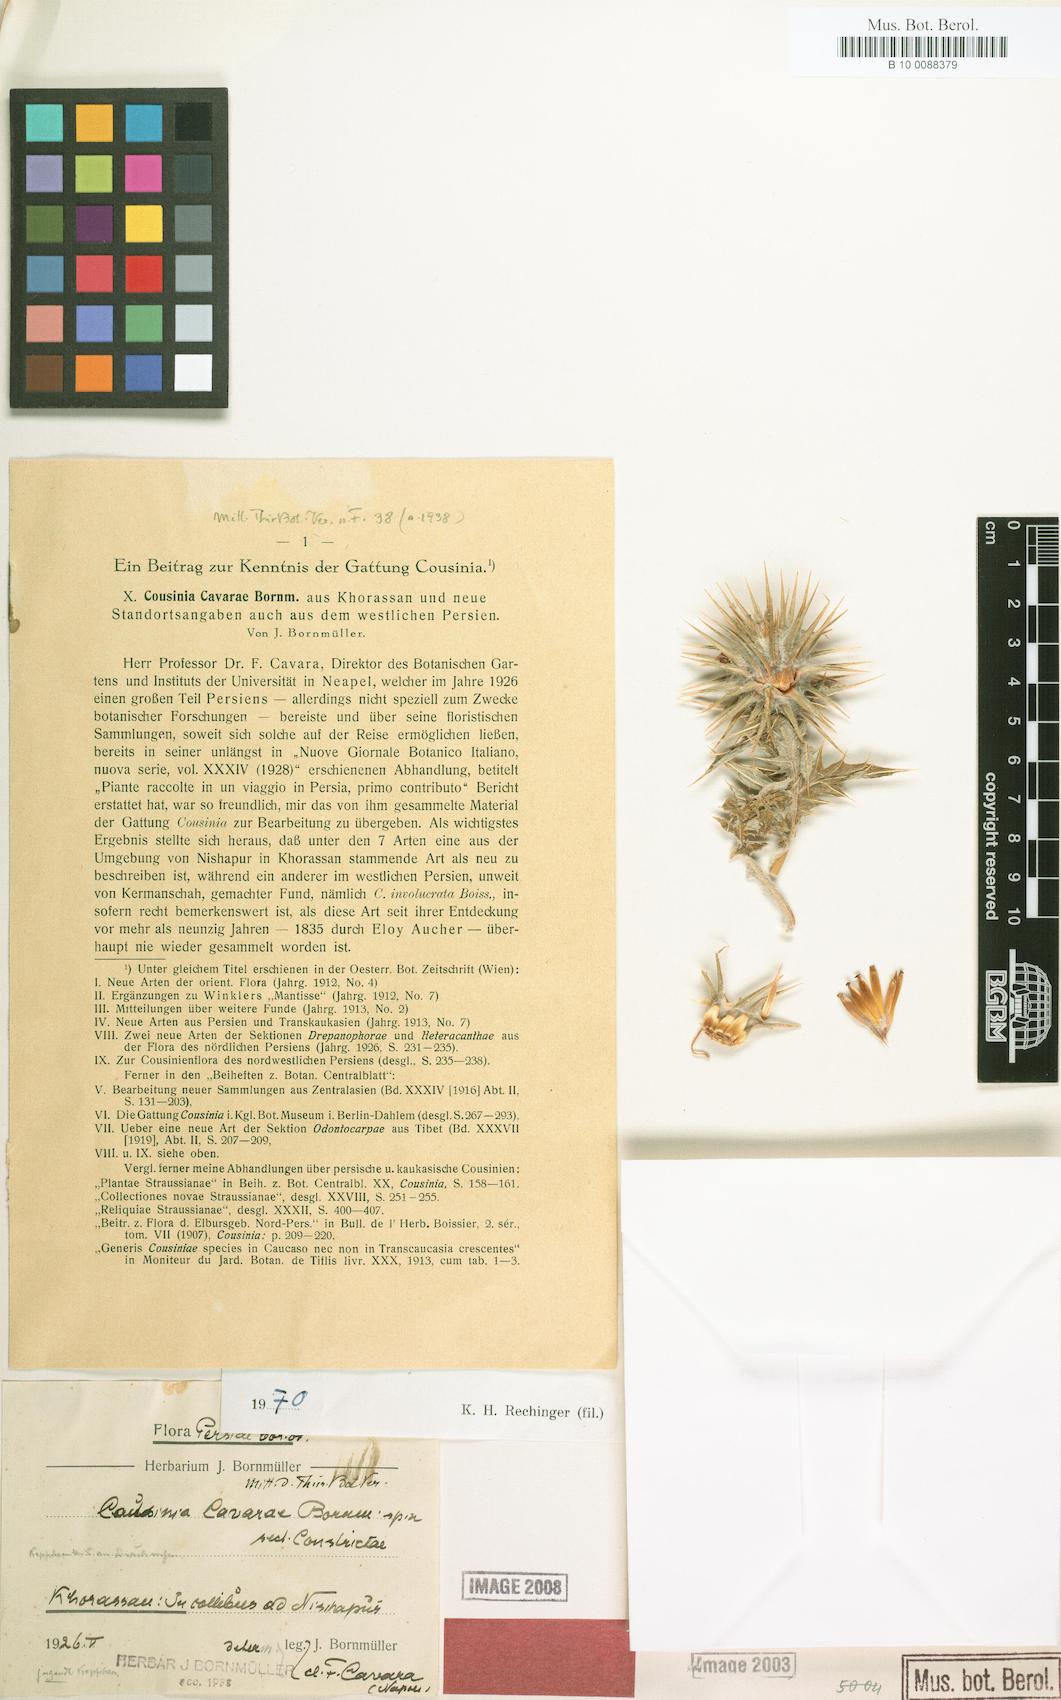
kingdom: Plantae
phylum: Tracheophyta
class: Magnoliopsida
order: Asterales
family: Asteraceae
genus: Cousinia
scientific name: Cousinia cavarae
